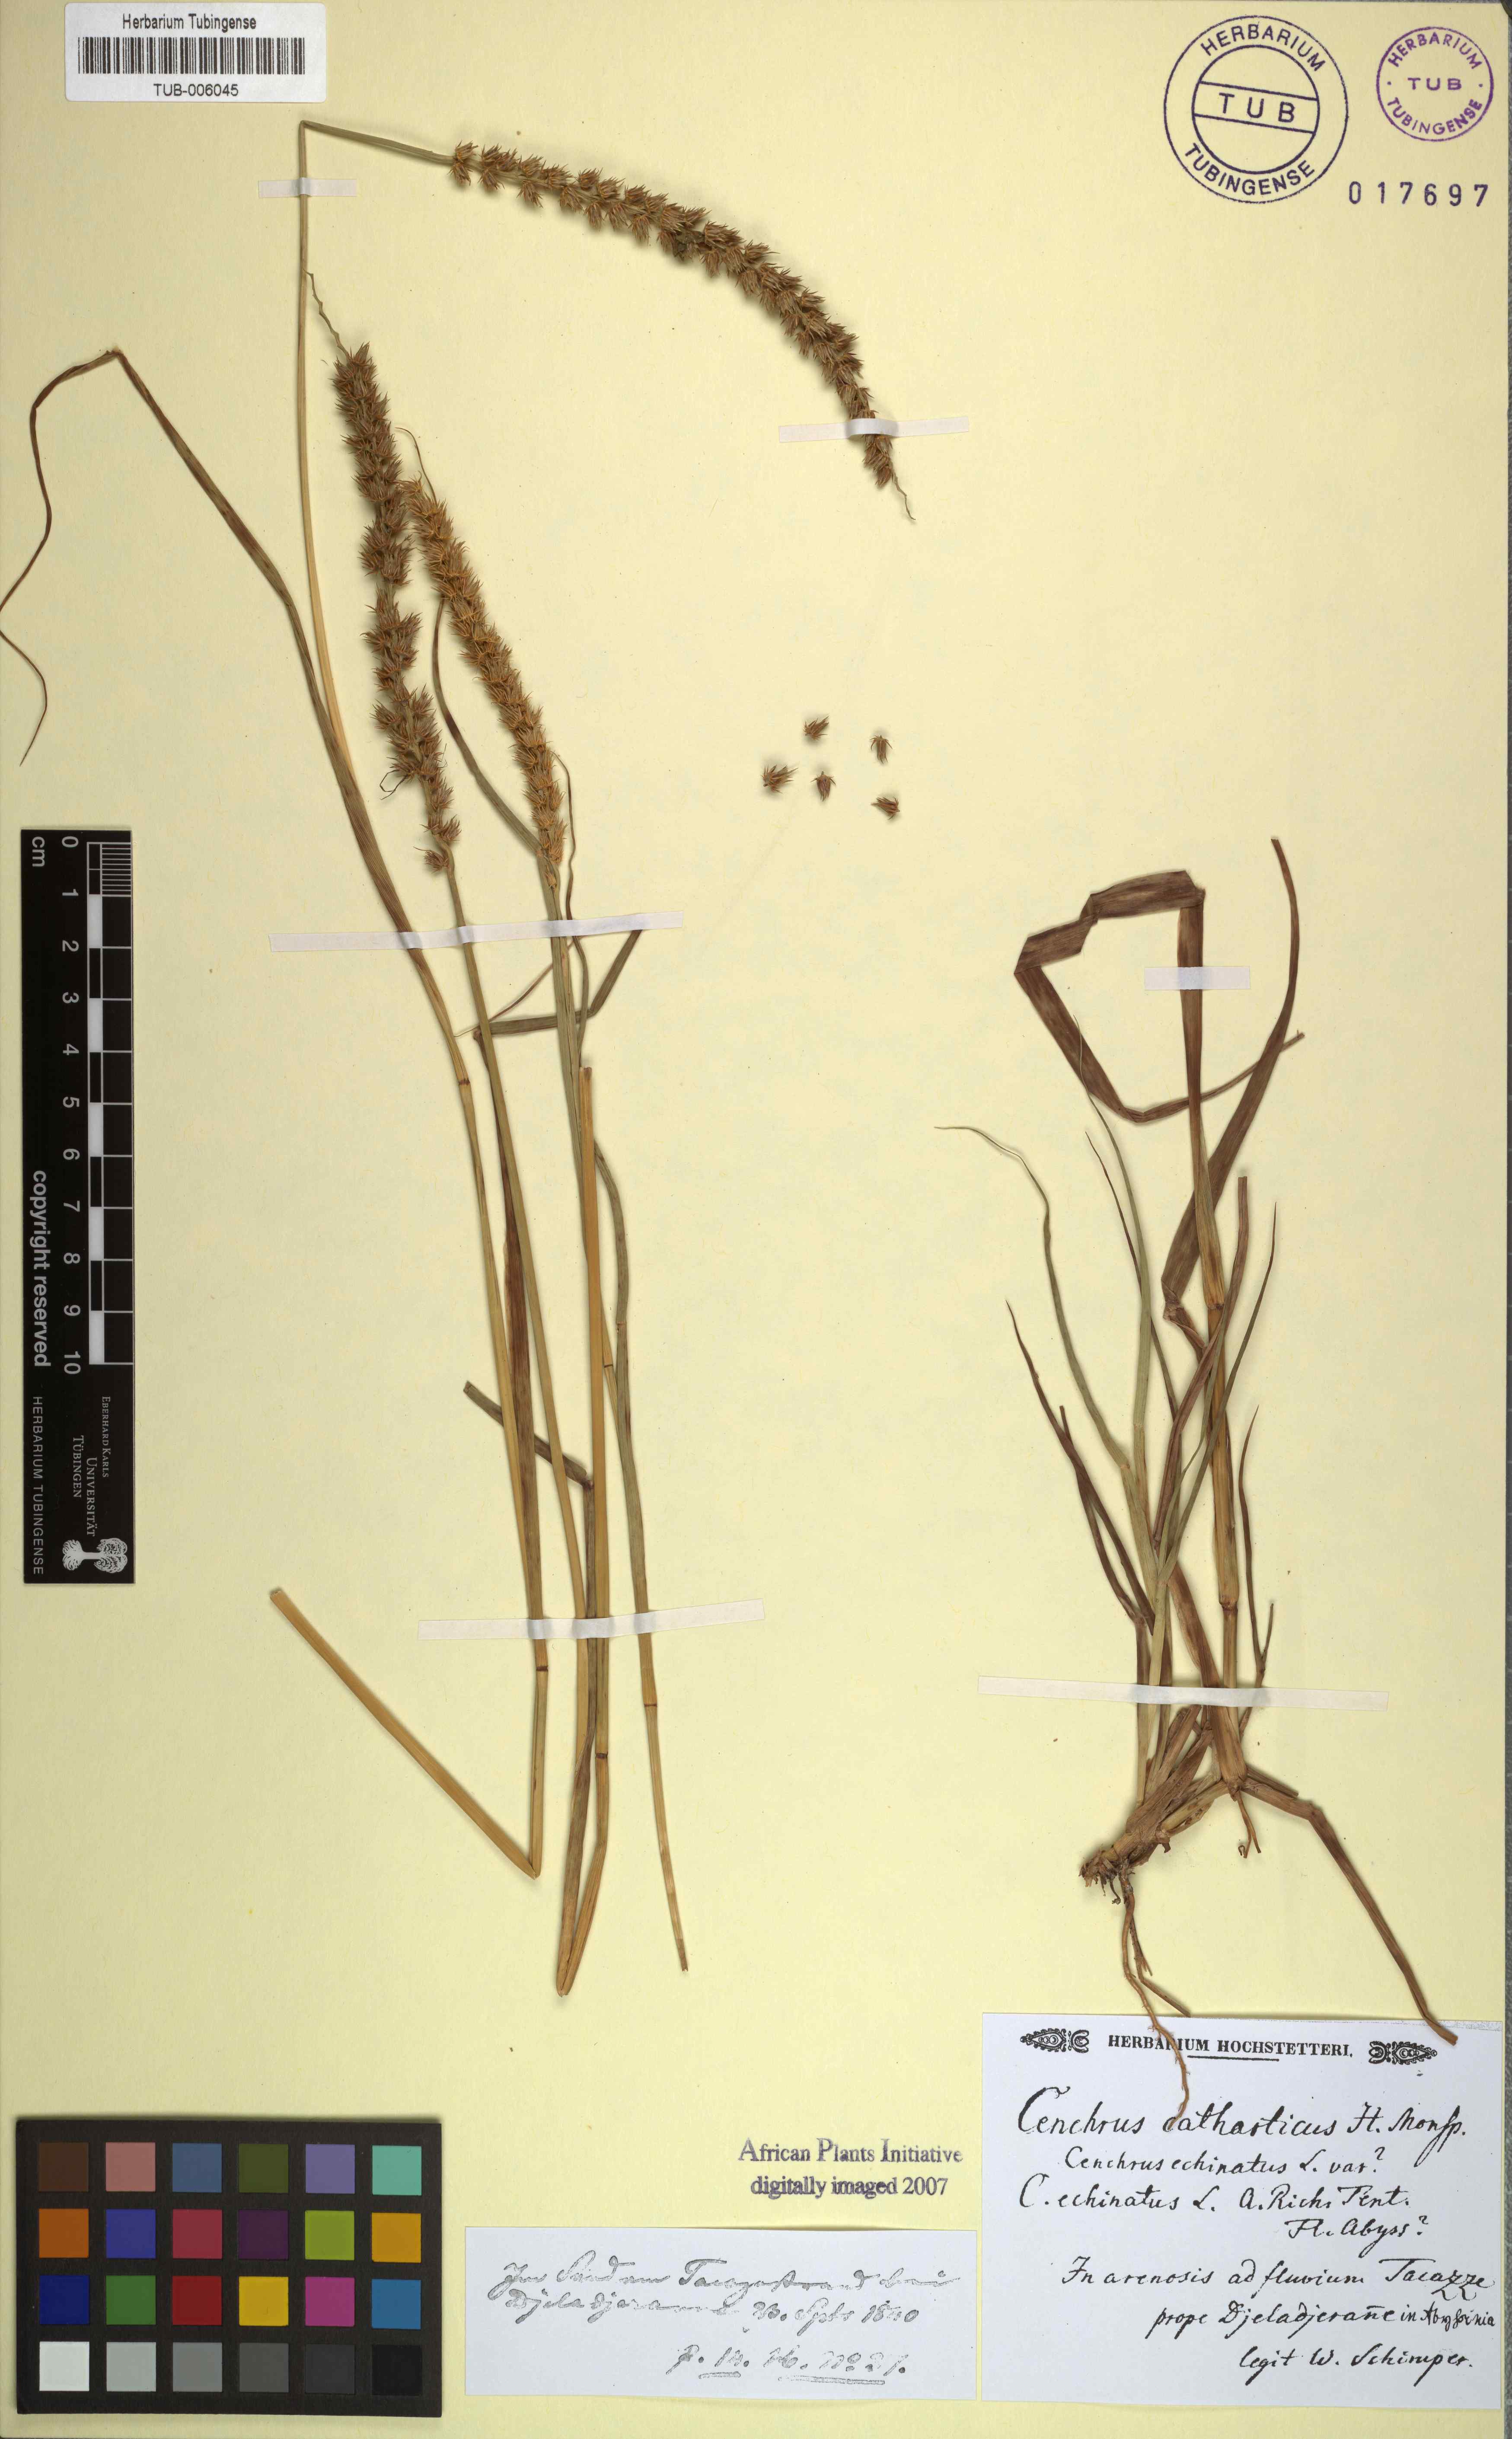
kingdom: Plantae
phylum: Tracheophyta
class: Liliopsida
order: Poales
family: Poaceae
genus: Cenchrus
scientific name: Cenchrus biflorus
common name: Indian sandbur
